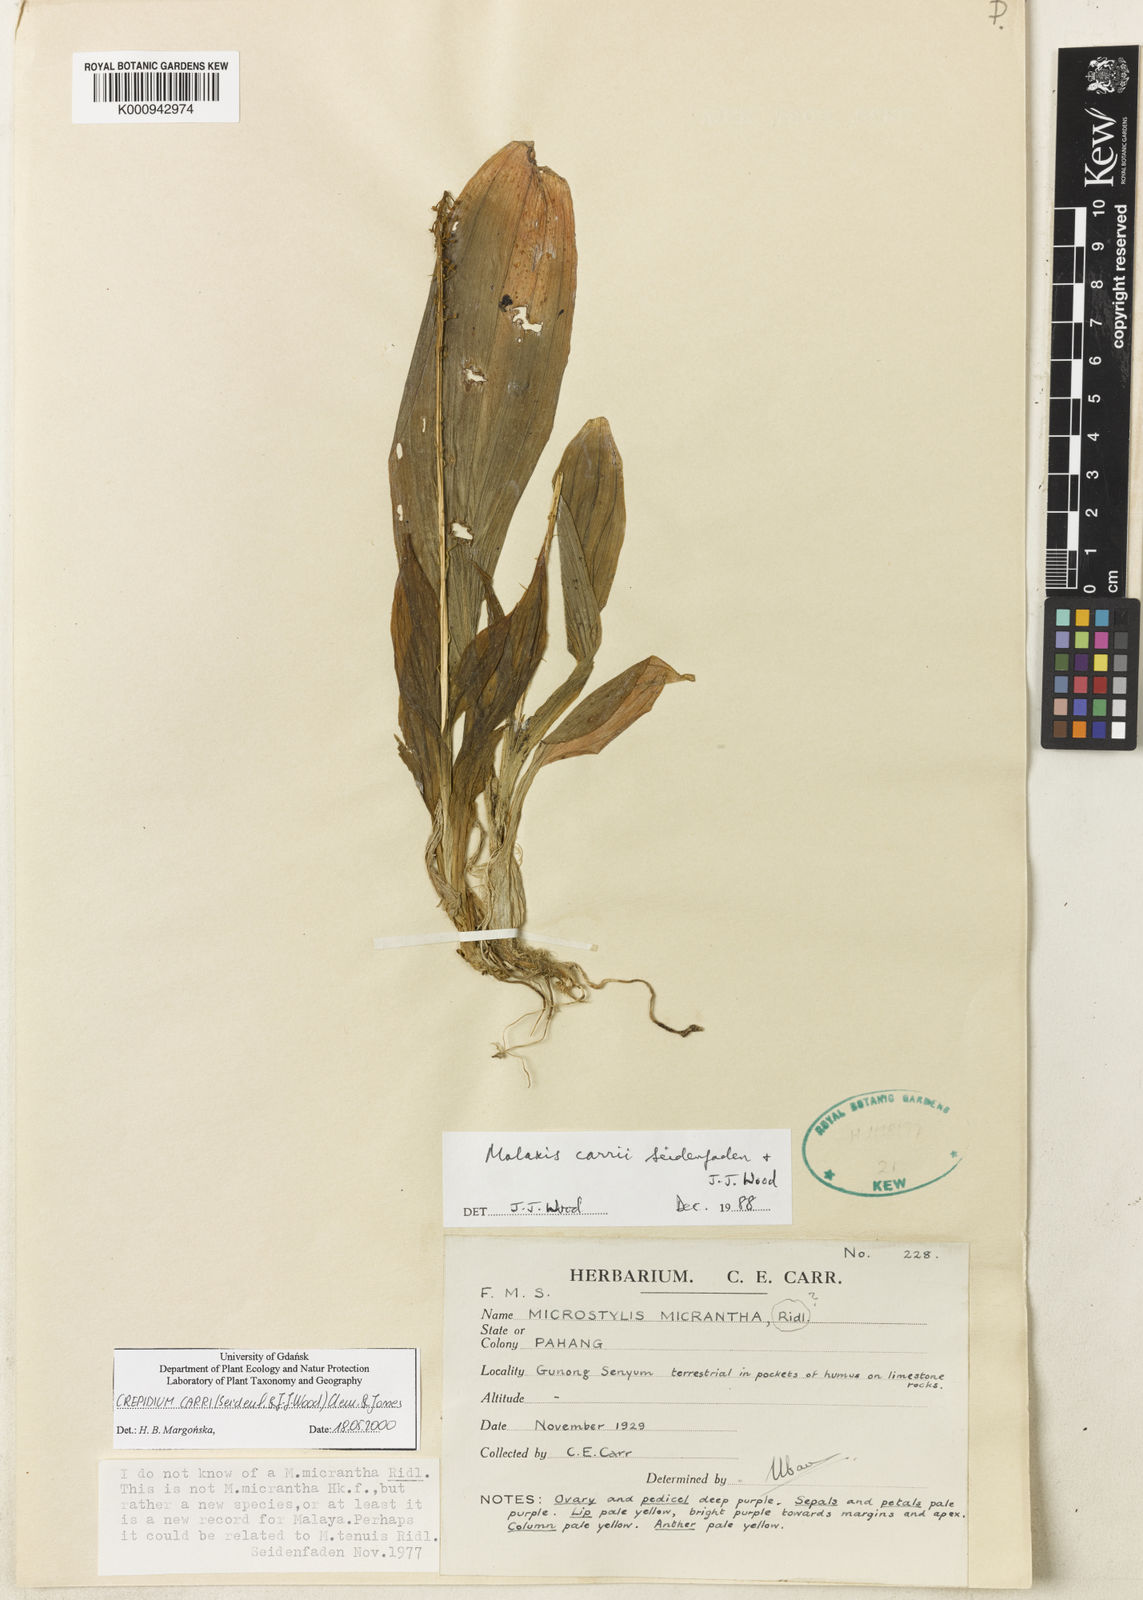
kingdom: Plantae
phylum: Tracheophyta
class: Liliopsida
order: Asparagales
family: Orchidaceae
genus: Crepidium
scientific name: Crepidium carrii
